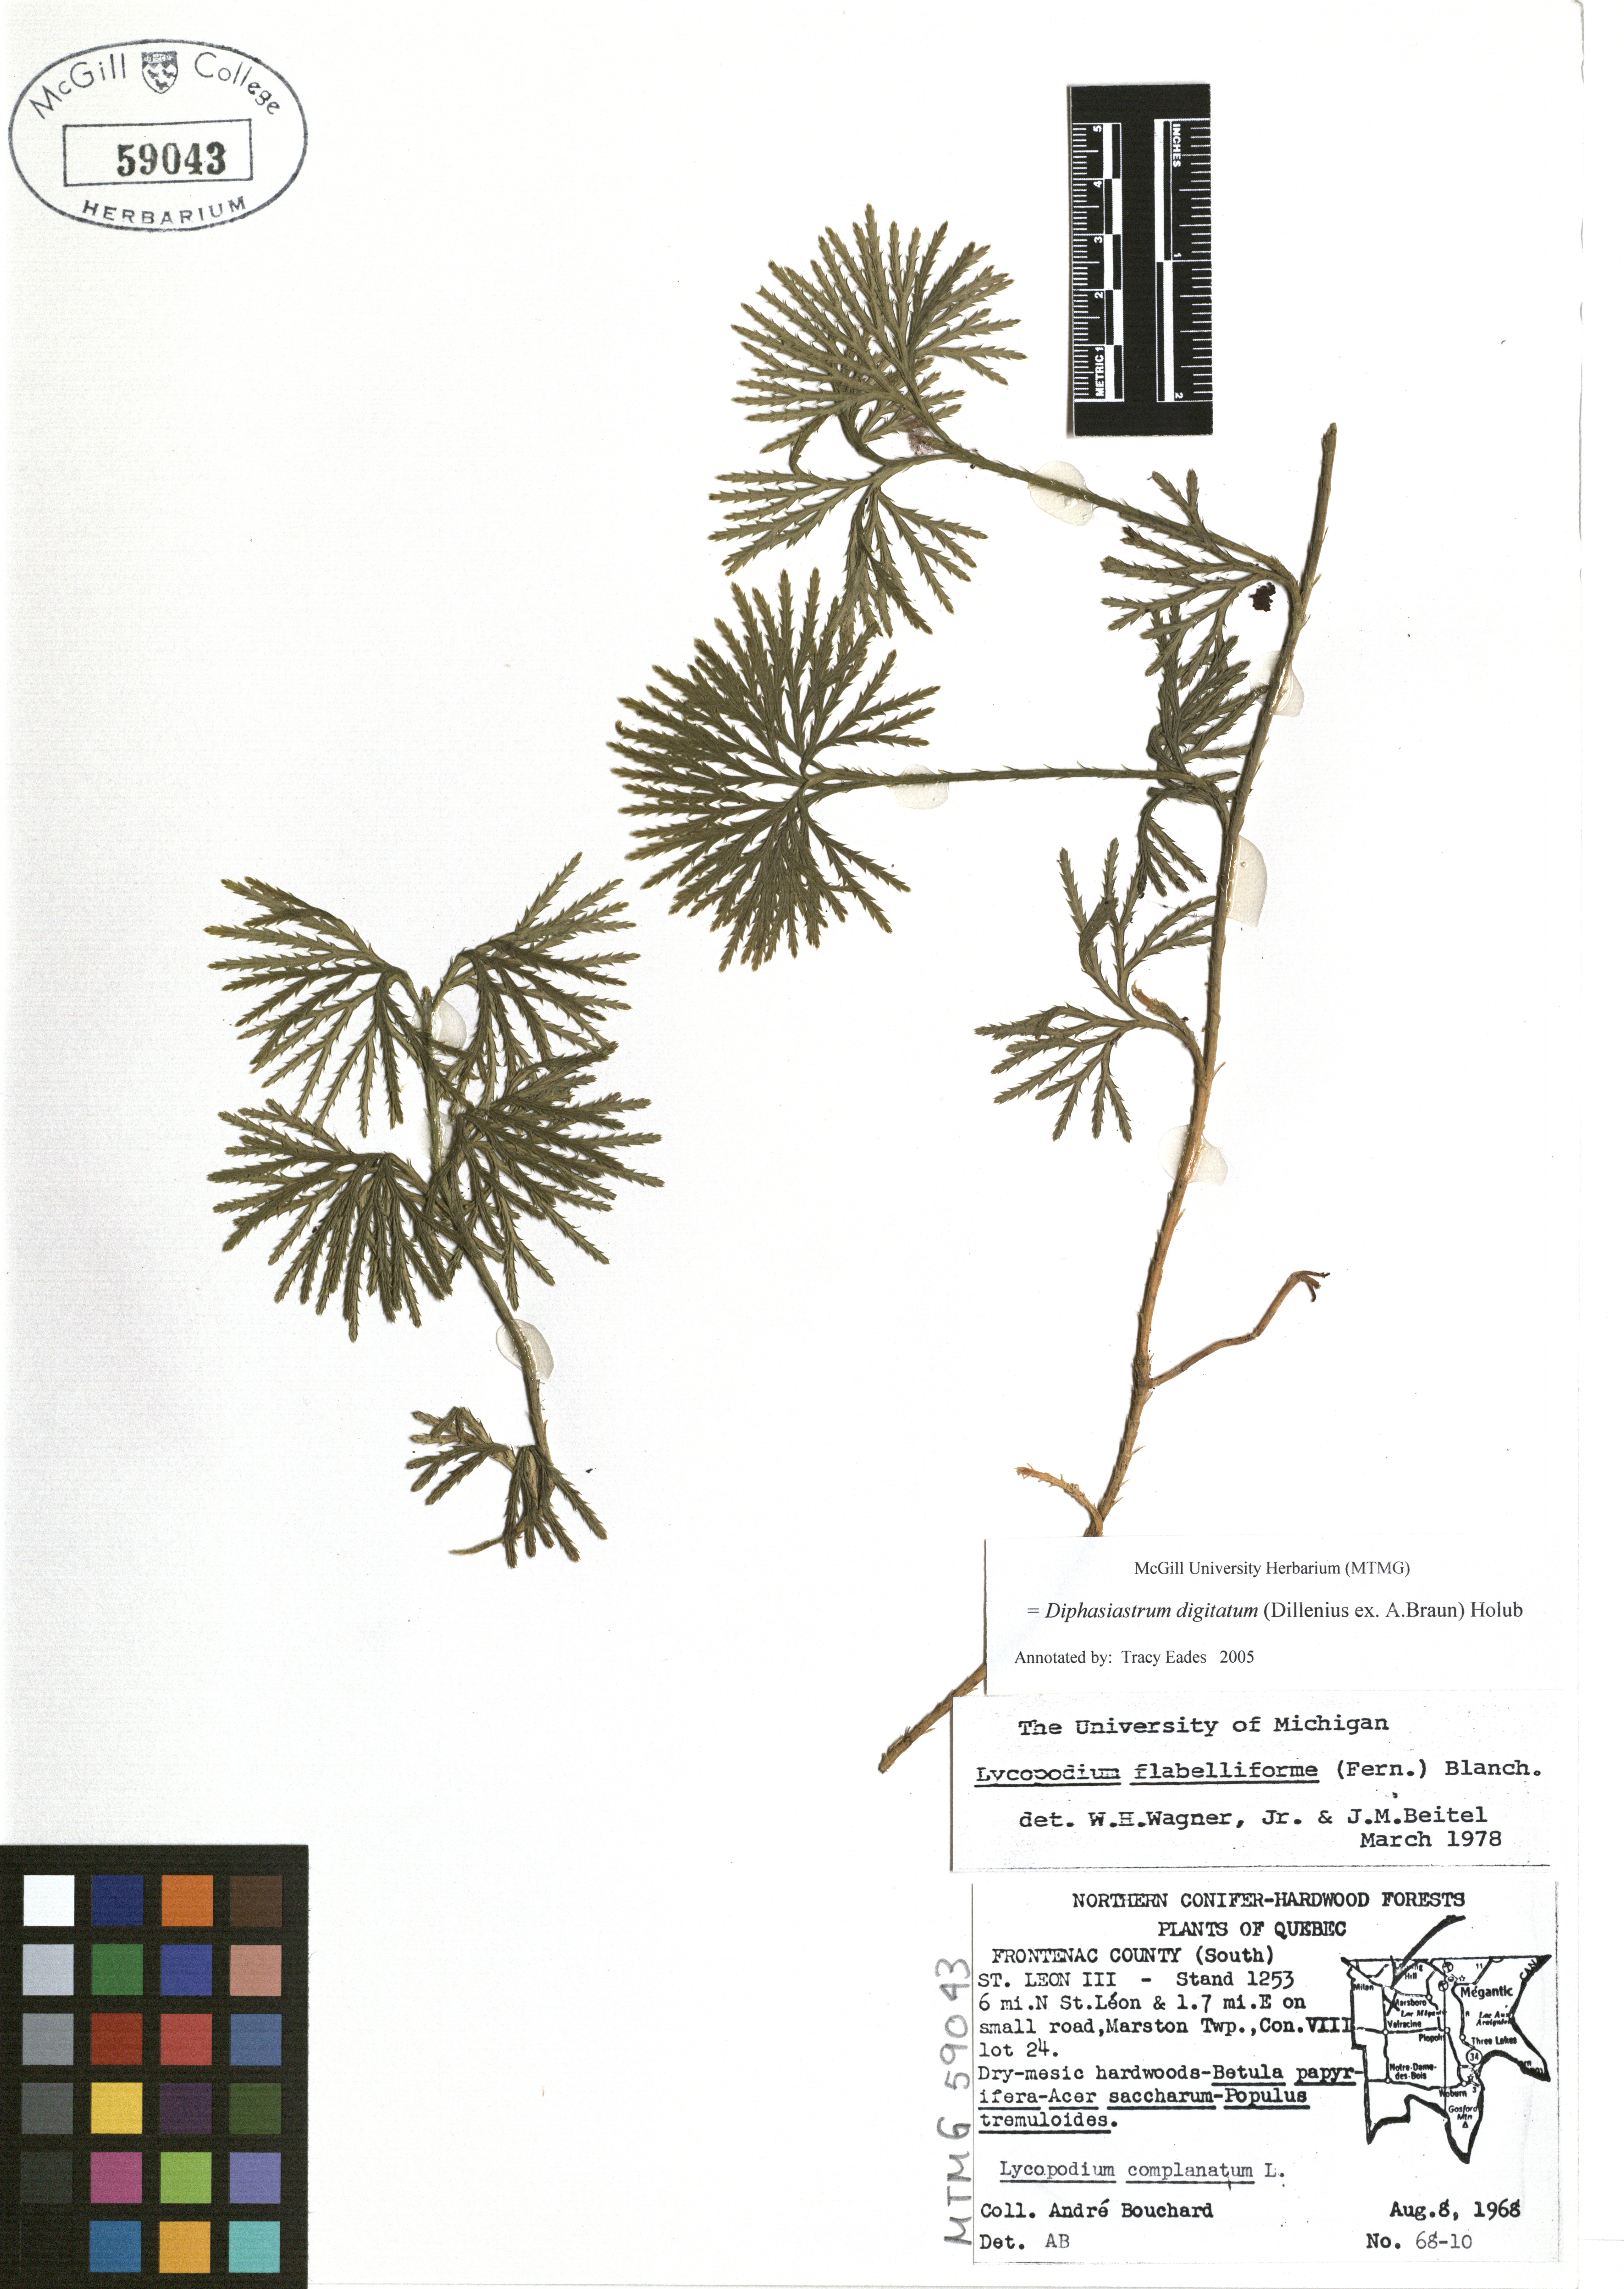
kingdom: Plantae
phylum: Tracheophyta
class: Lycopodiopsida
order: Lycopodiales
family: Lycopodiaceae
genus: Diphasiastrum
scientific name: Diphasiastrum digitatum
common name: Southern running-pine
